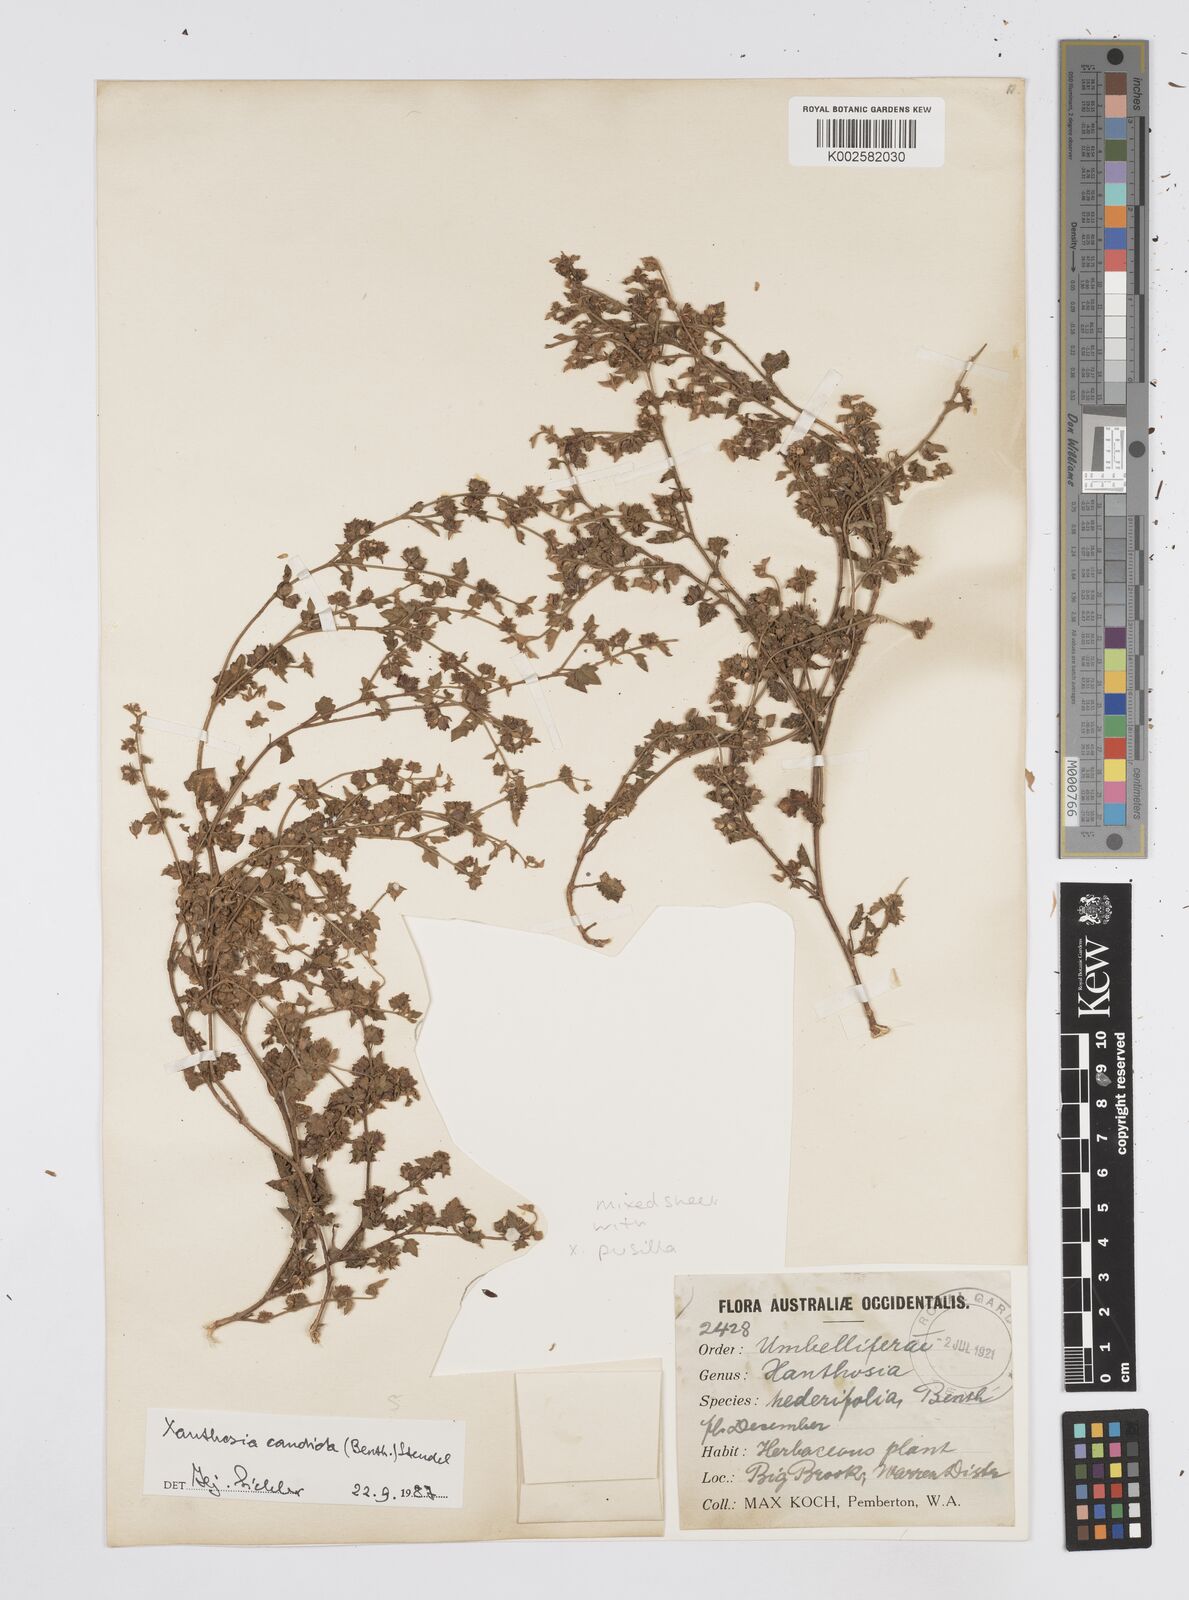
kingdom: Plantae
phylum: Tracheophyta
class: Magnoliopsida
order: Apiales
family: Apiaceae
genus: Xanthosia
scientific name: Xanthosia candida
